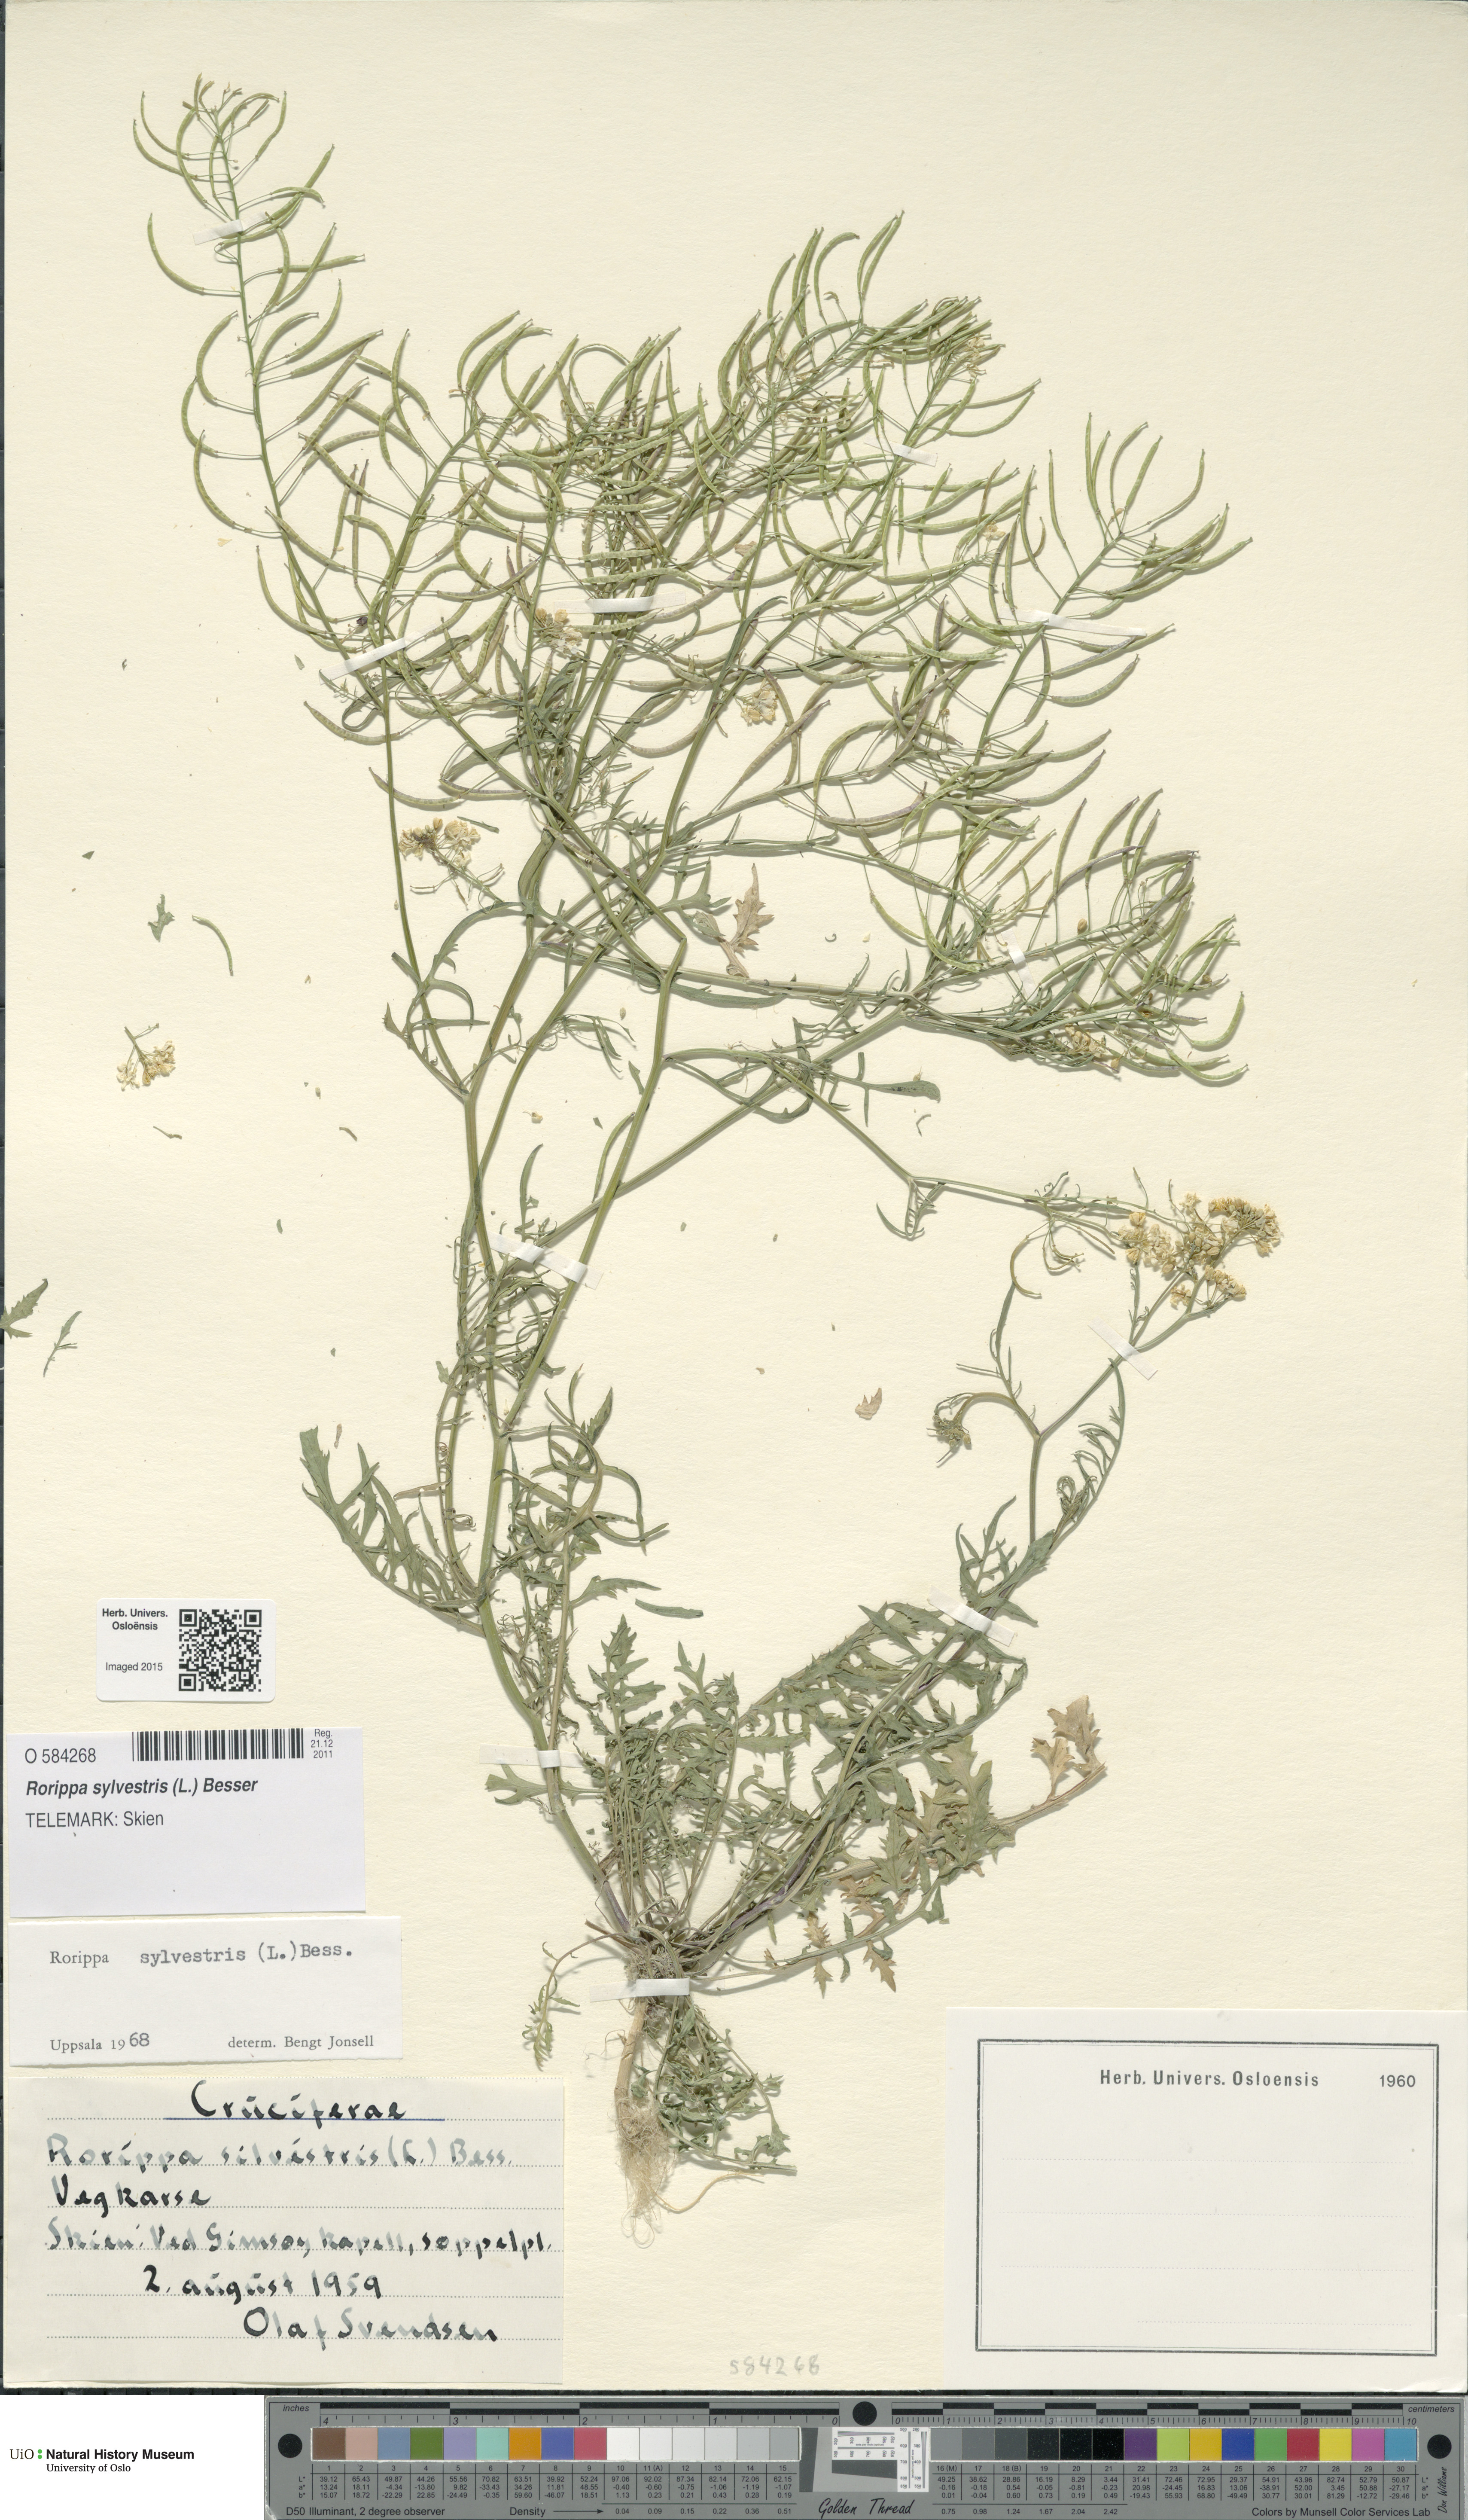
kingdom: Plantae
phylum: Tracheophyta
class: Magnoliopsida
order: Brassicales
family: Brassicaceae
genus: Rorippa
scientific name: Rorippa sylvestris
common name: Creeping yellowcress
